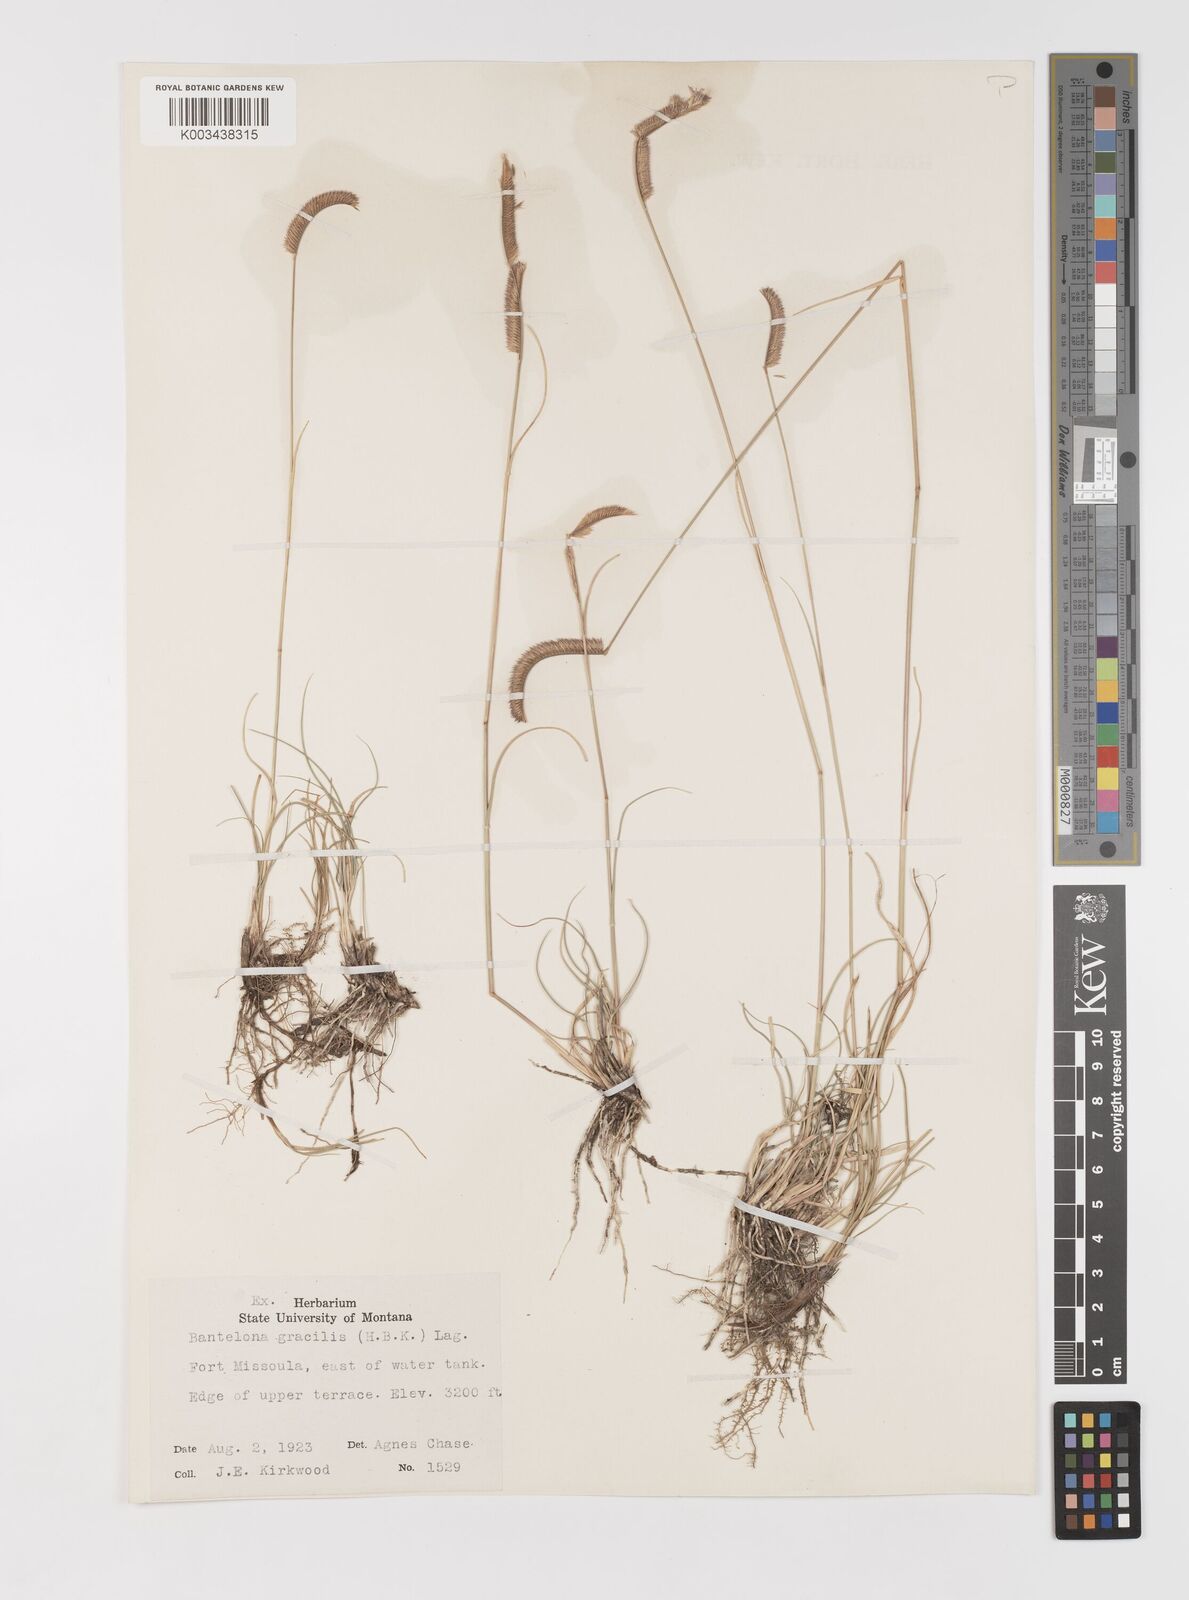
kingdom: Plantae
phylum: Tracheophyta
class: Liliopsida
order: Poales
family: Poaceae
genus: Bouteloua
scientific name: Bouteloua
